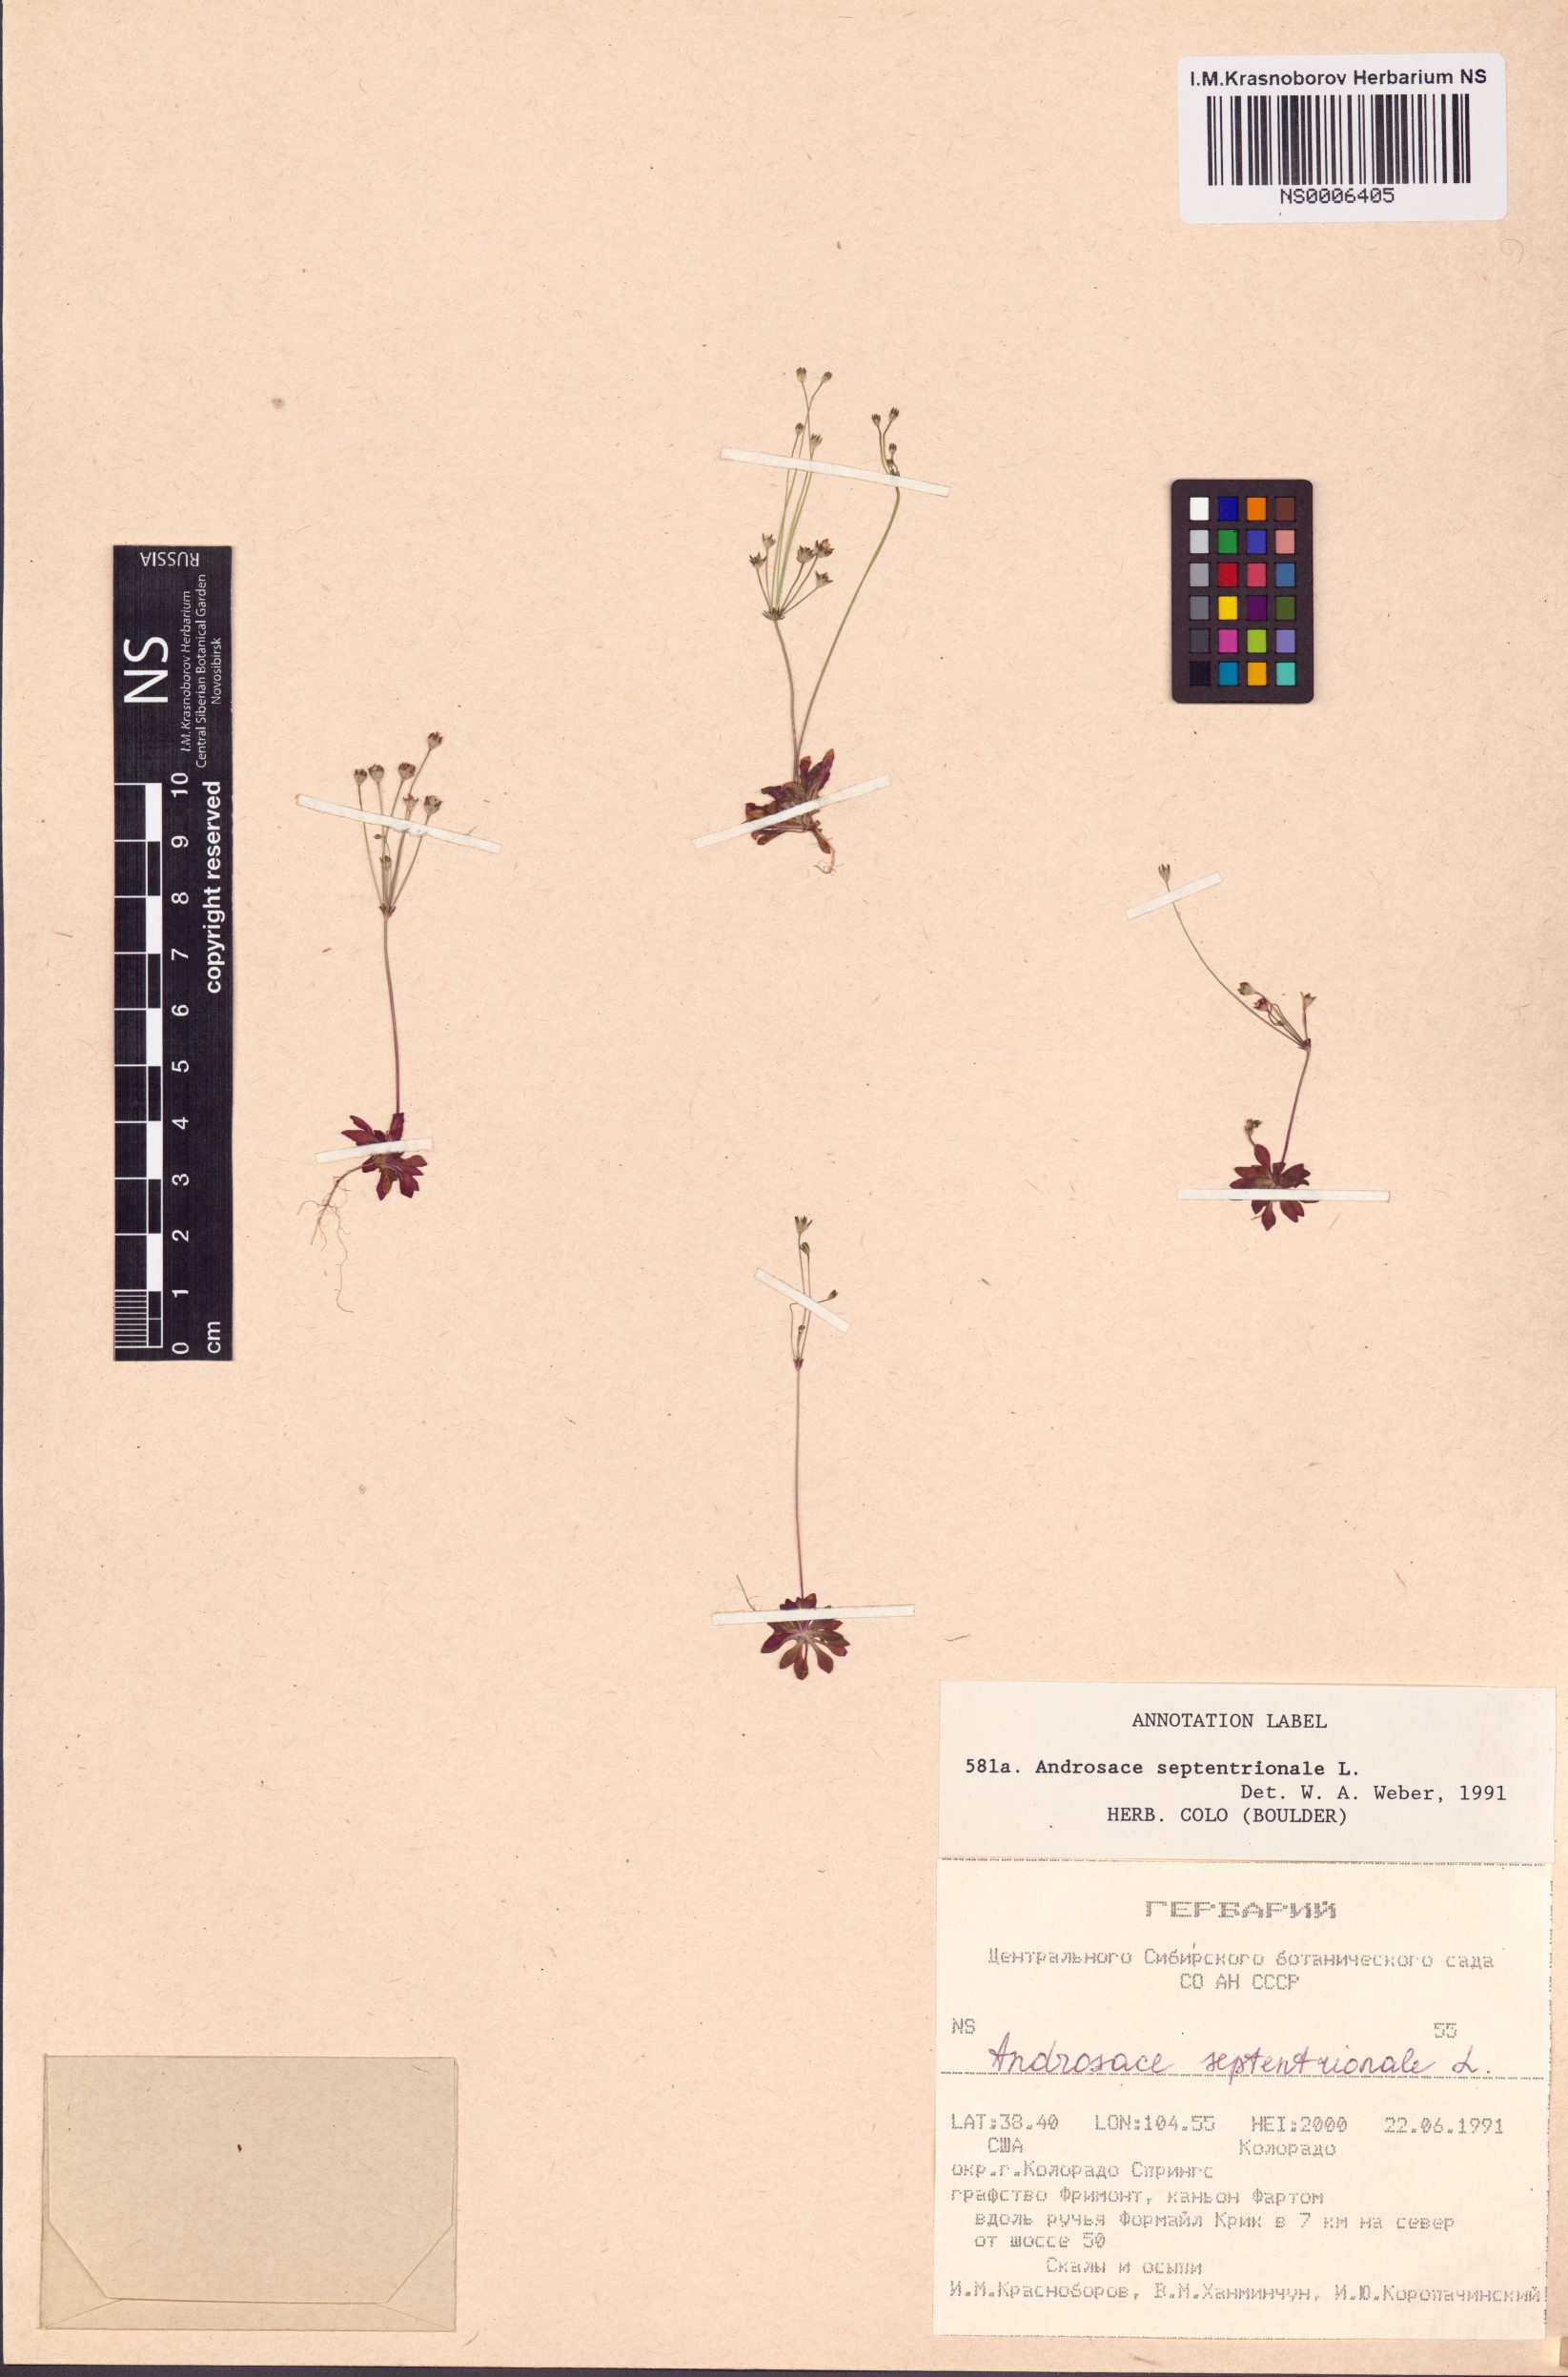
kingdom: Plantae
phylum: Tracheophyta
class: Magnoliopsida
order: Ericales
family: Primulaceae
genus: Androsace
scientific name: Androsace septentrionalis
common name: Hairy northern fairy-candelabra
